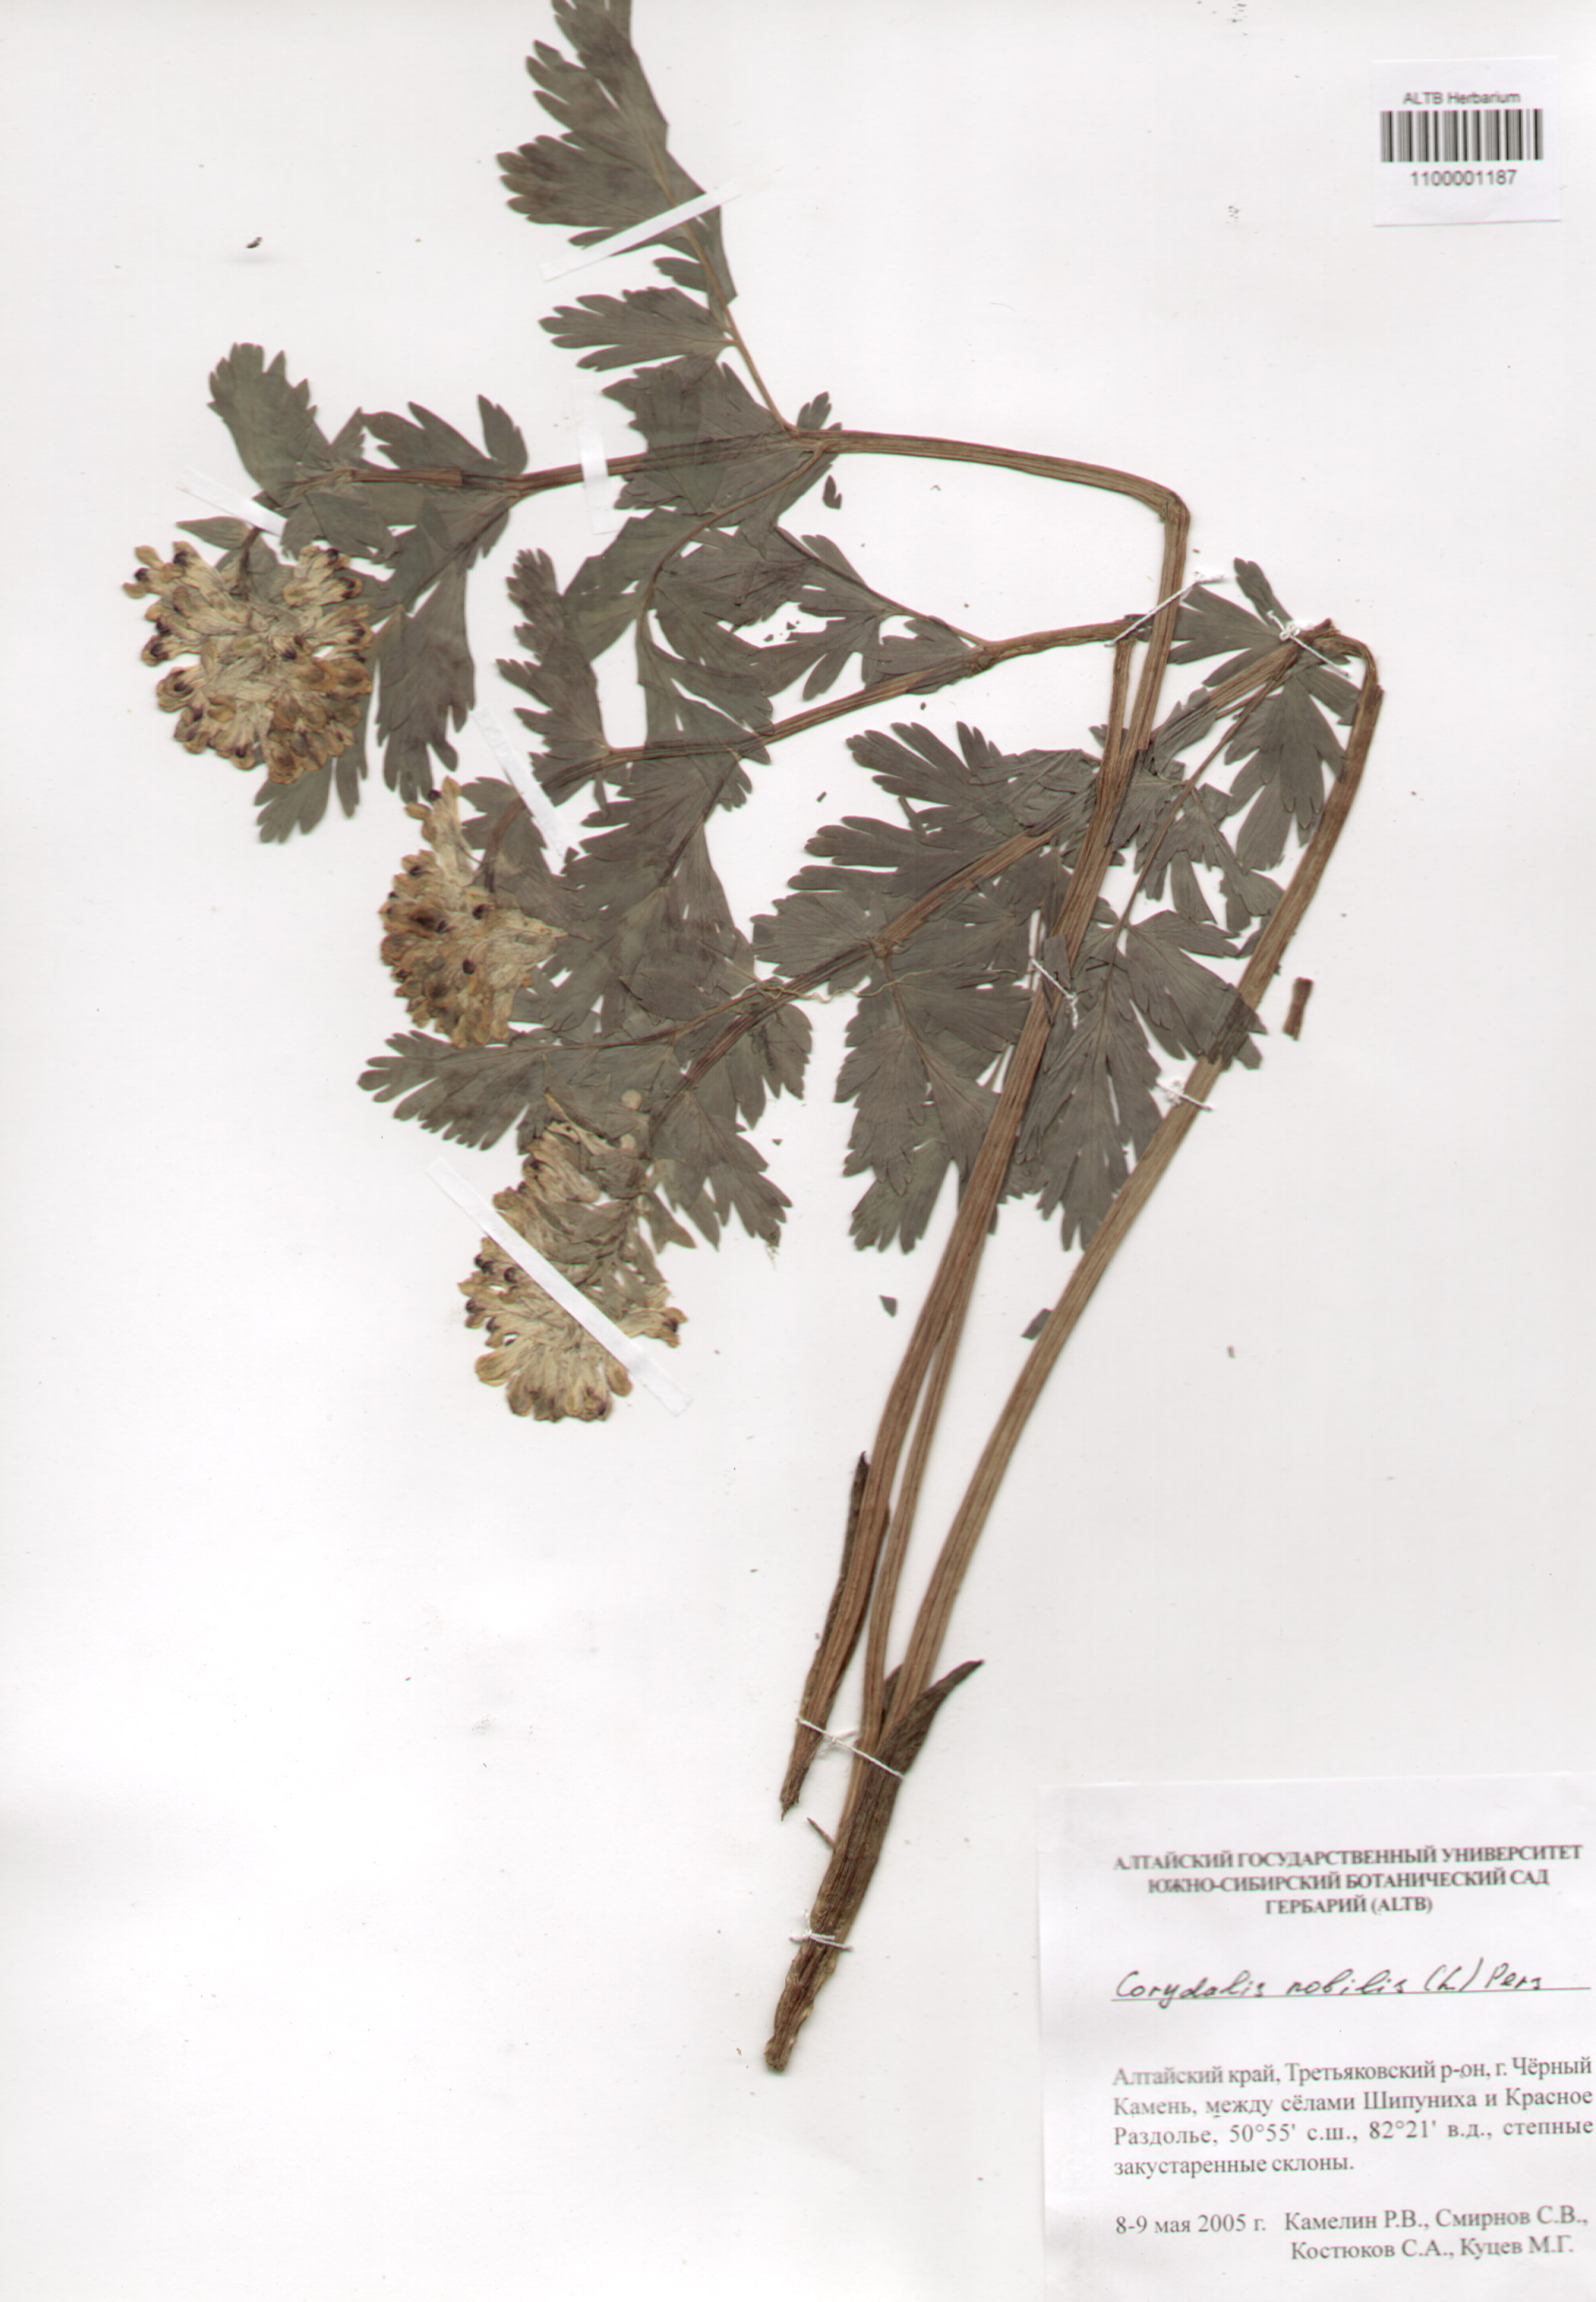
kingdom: Plantae
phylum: Tracheophyta
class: Magnoliopsida
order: Ranunculales
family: Papaveraceae
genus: Corydalis
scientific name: Corydalis nobilis
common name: Siberian corydalis
